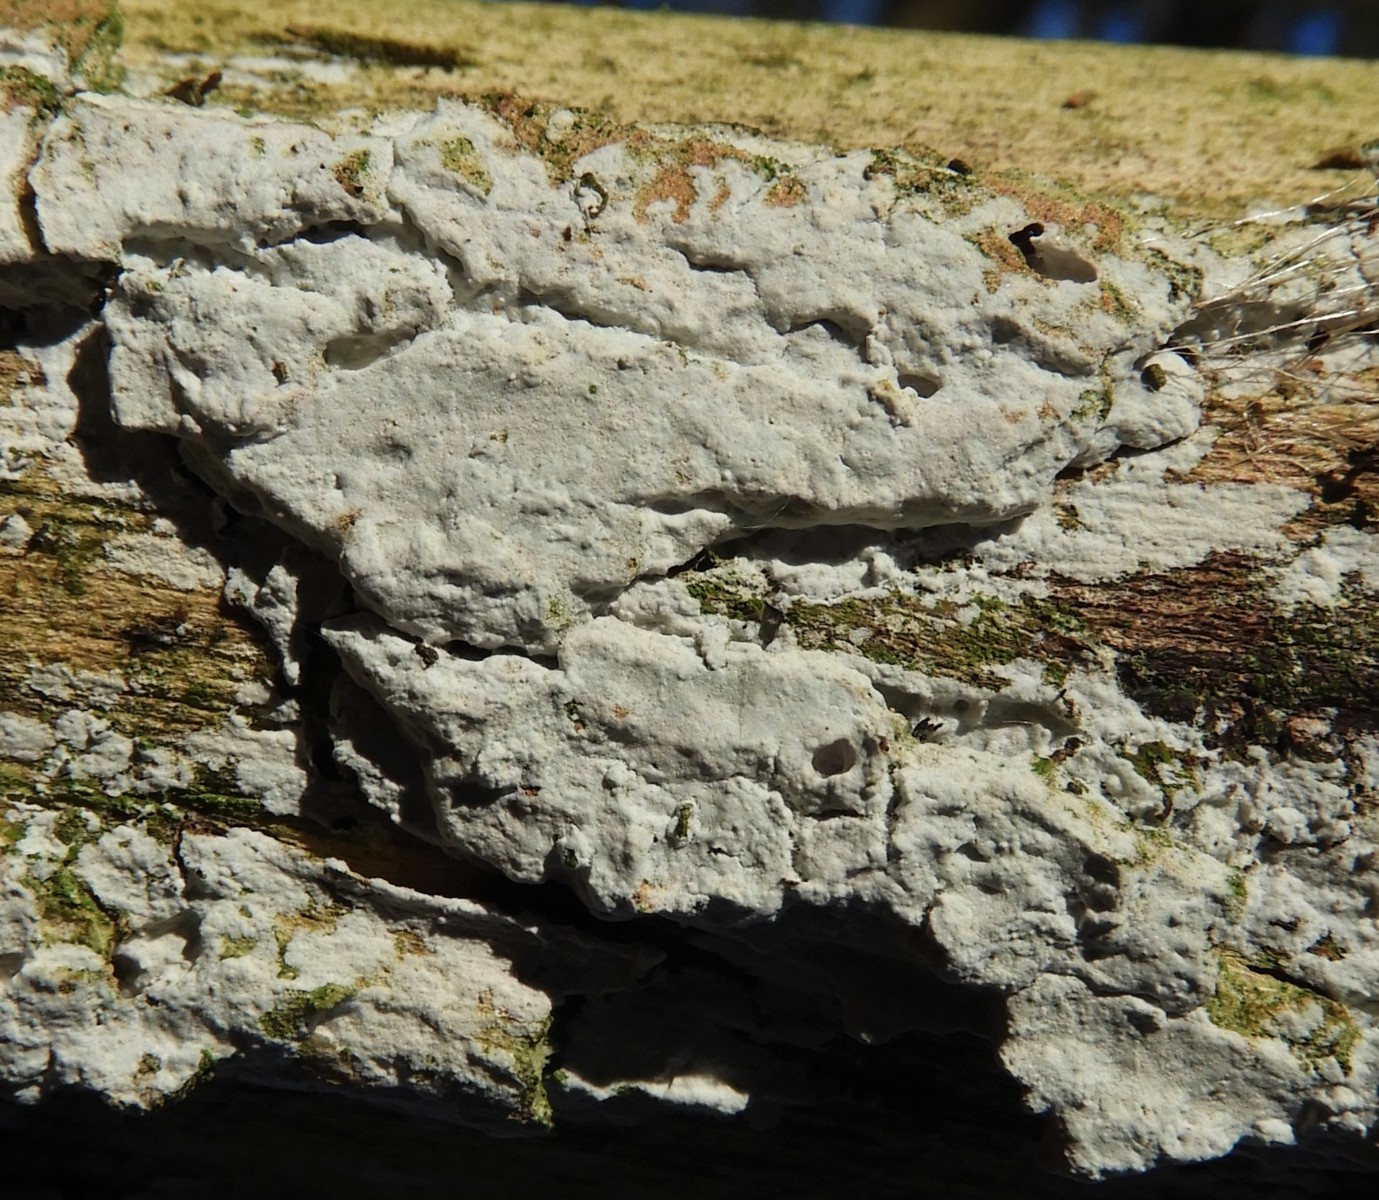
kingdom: Fungi
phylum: Basidiomycota
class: Agaricomycetes
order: Corticiales
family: Corticiaceae
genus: Lyomyces
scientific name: Lyomyces sambuci
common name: almindelig hyldehinde
